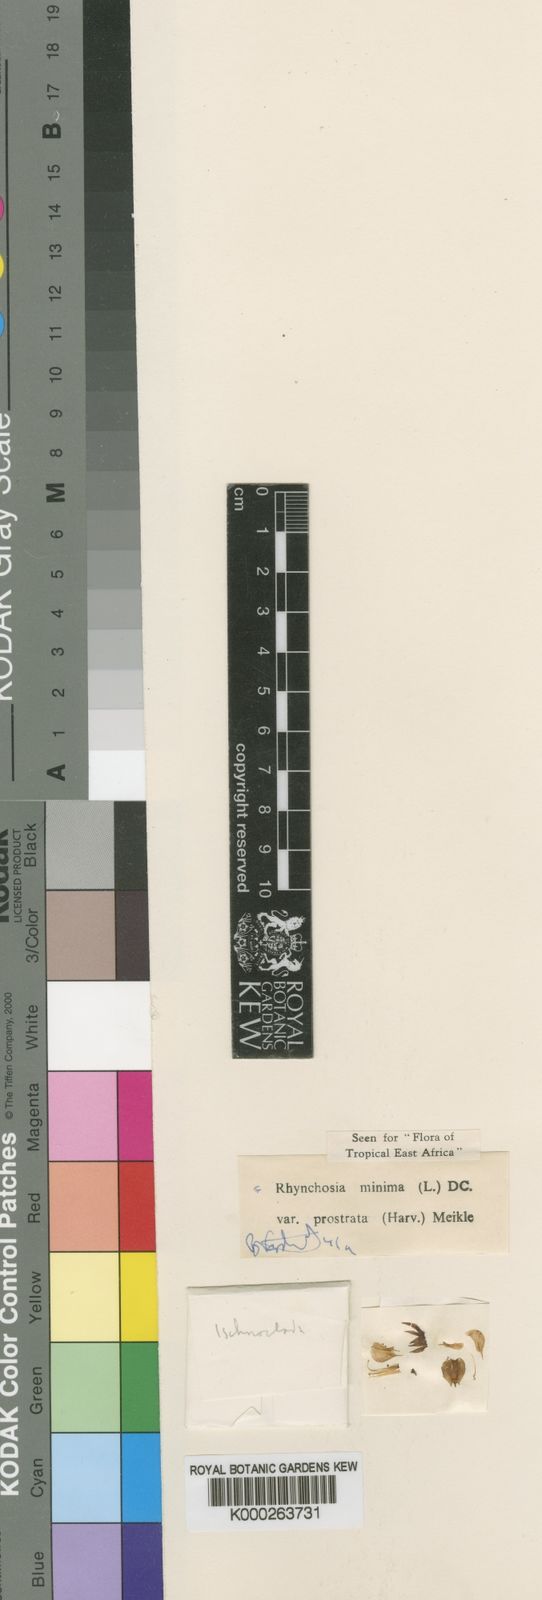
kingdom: Plantae
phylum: Tracheophyta
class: Magnoliopsida
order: Fabales
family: Fabaceae
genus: Rhynchosia
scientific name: Rhynchosia minima
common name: Least snoutbean
